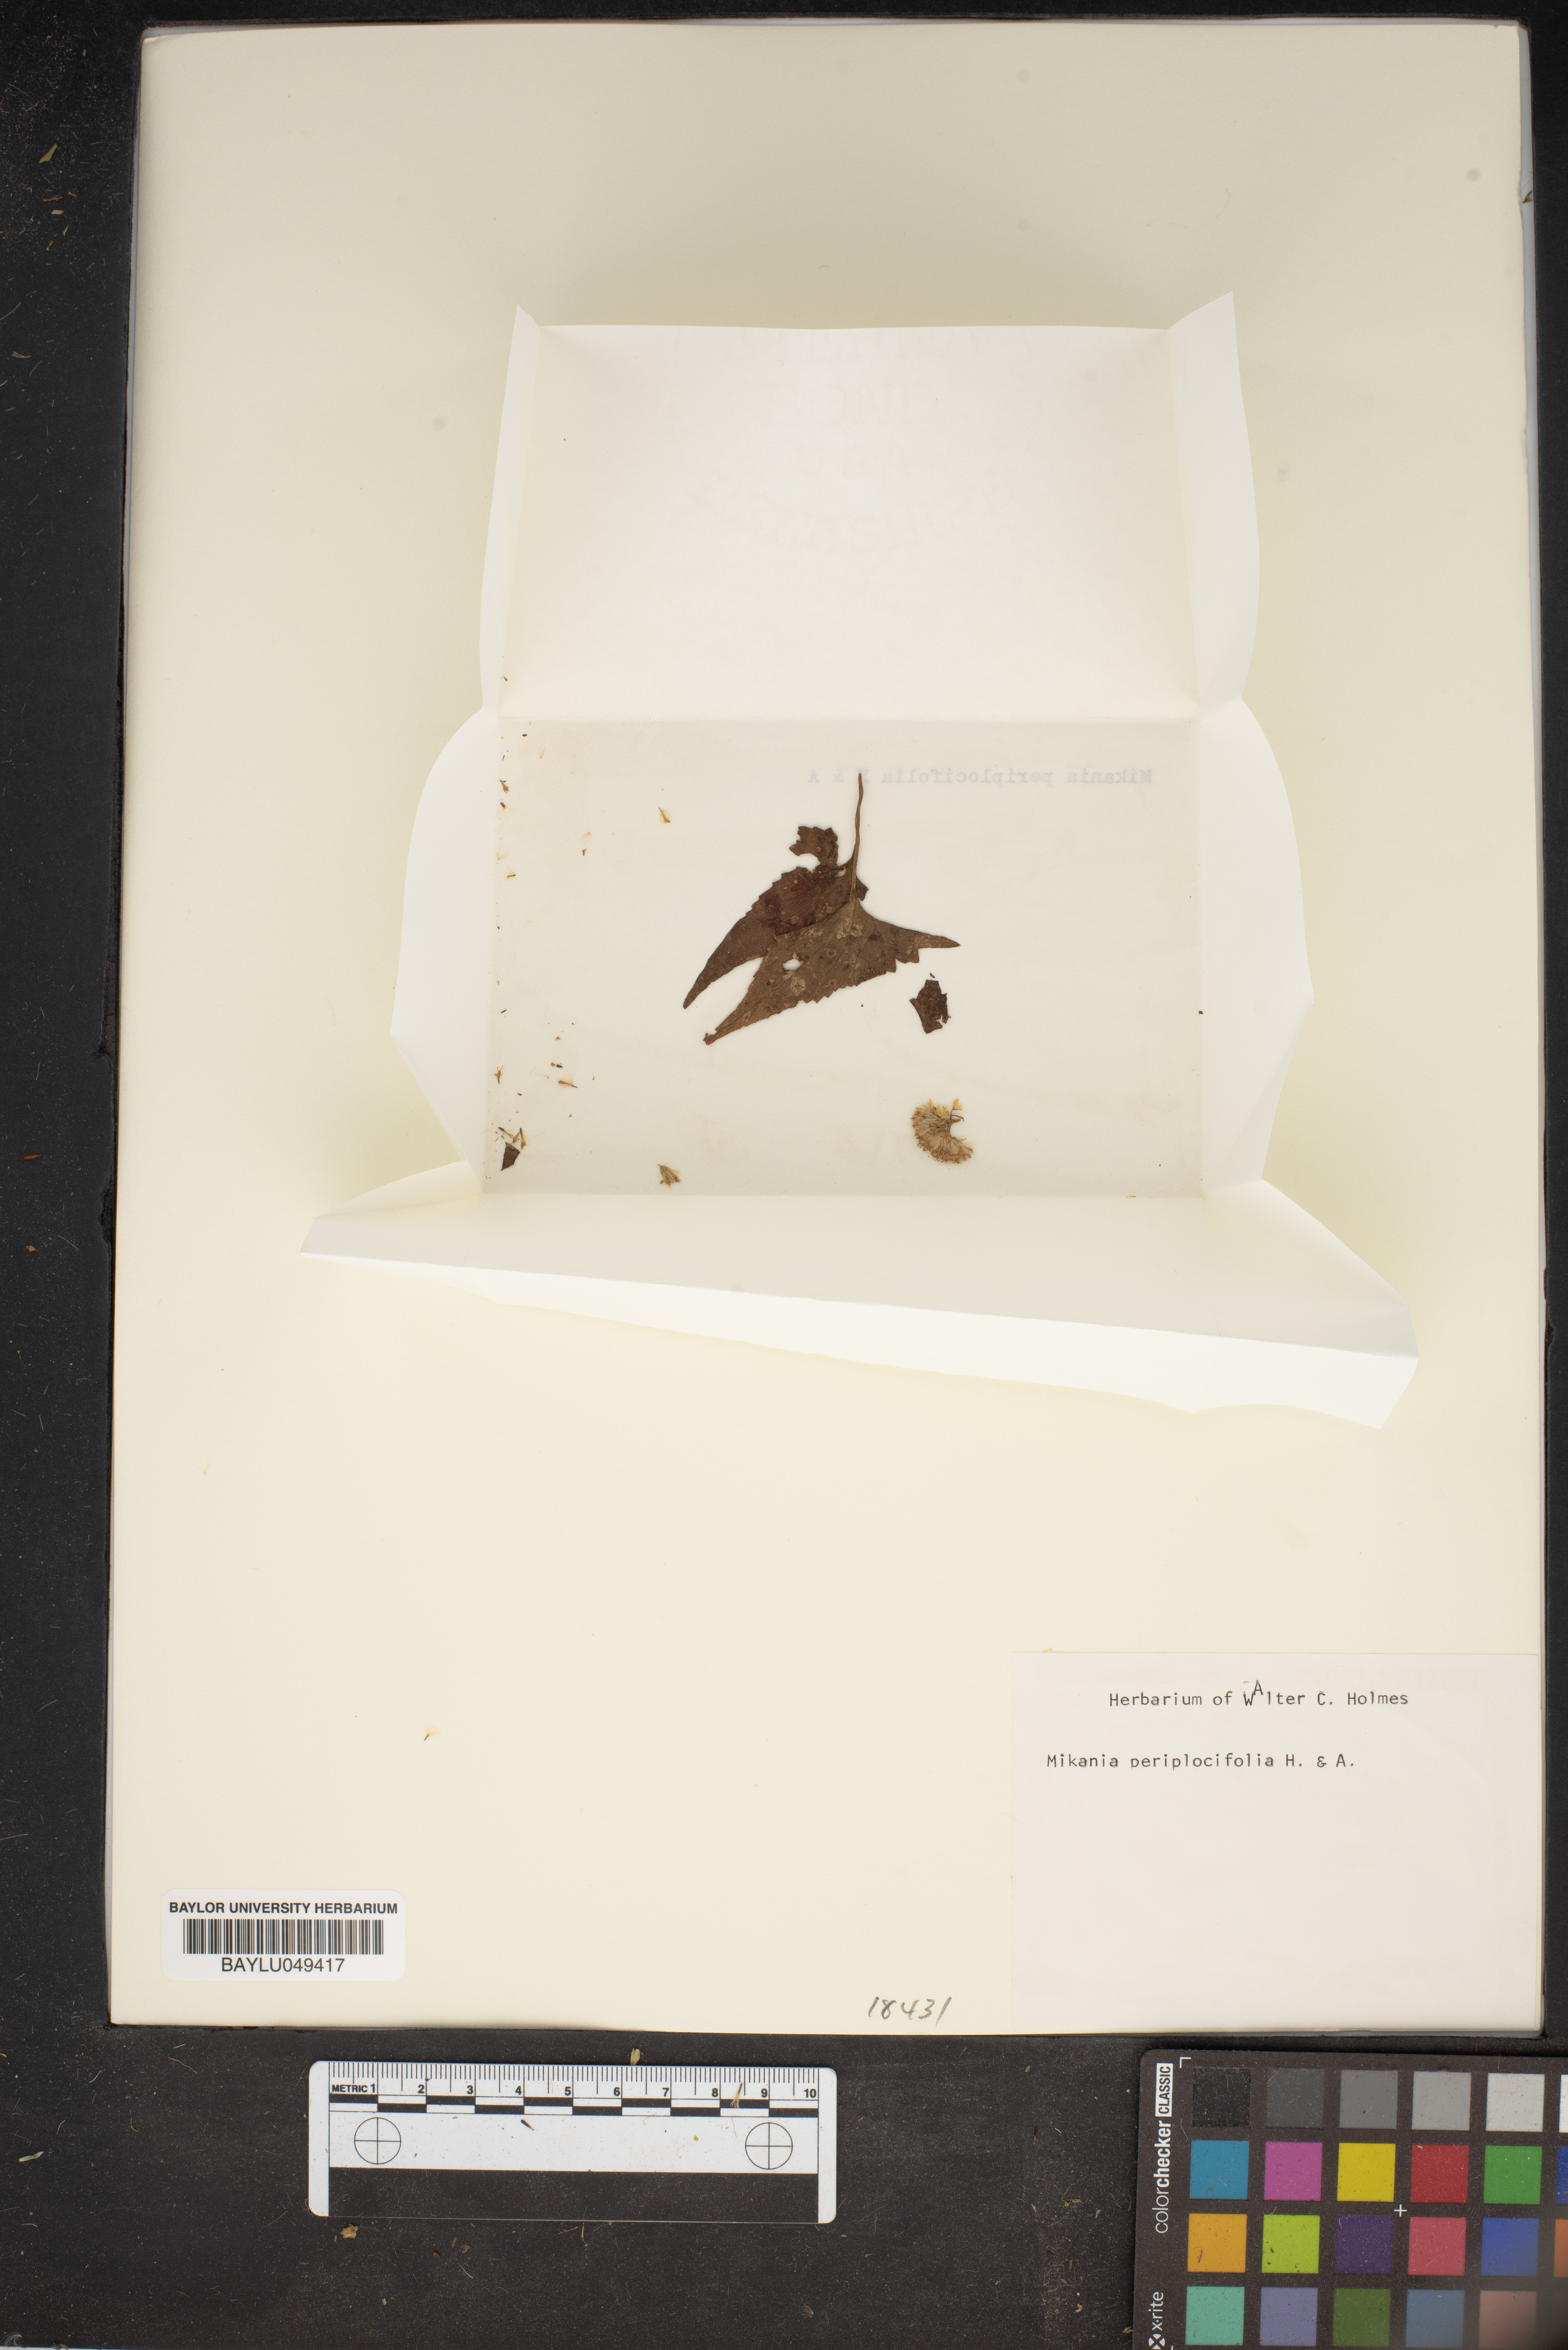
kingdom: Plantae
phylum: Tracheophyta
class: Magnoliopsida
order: Asterales
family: Asteraceae
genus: Mikania
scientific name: Mikania periplocifolia
